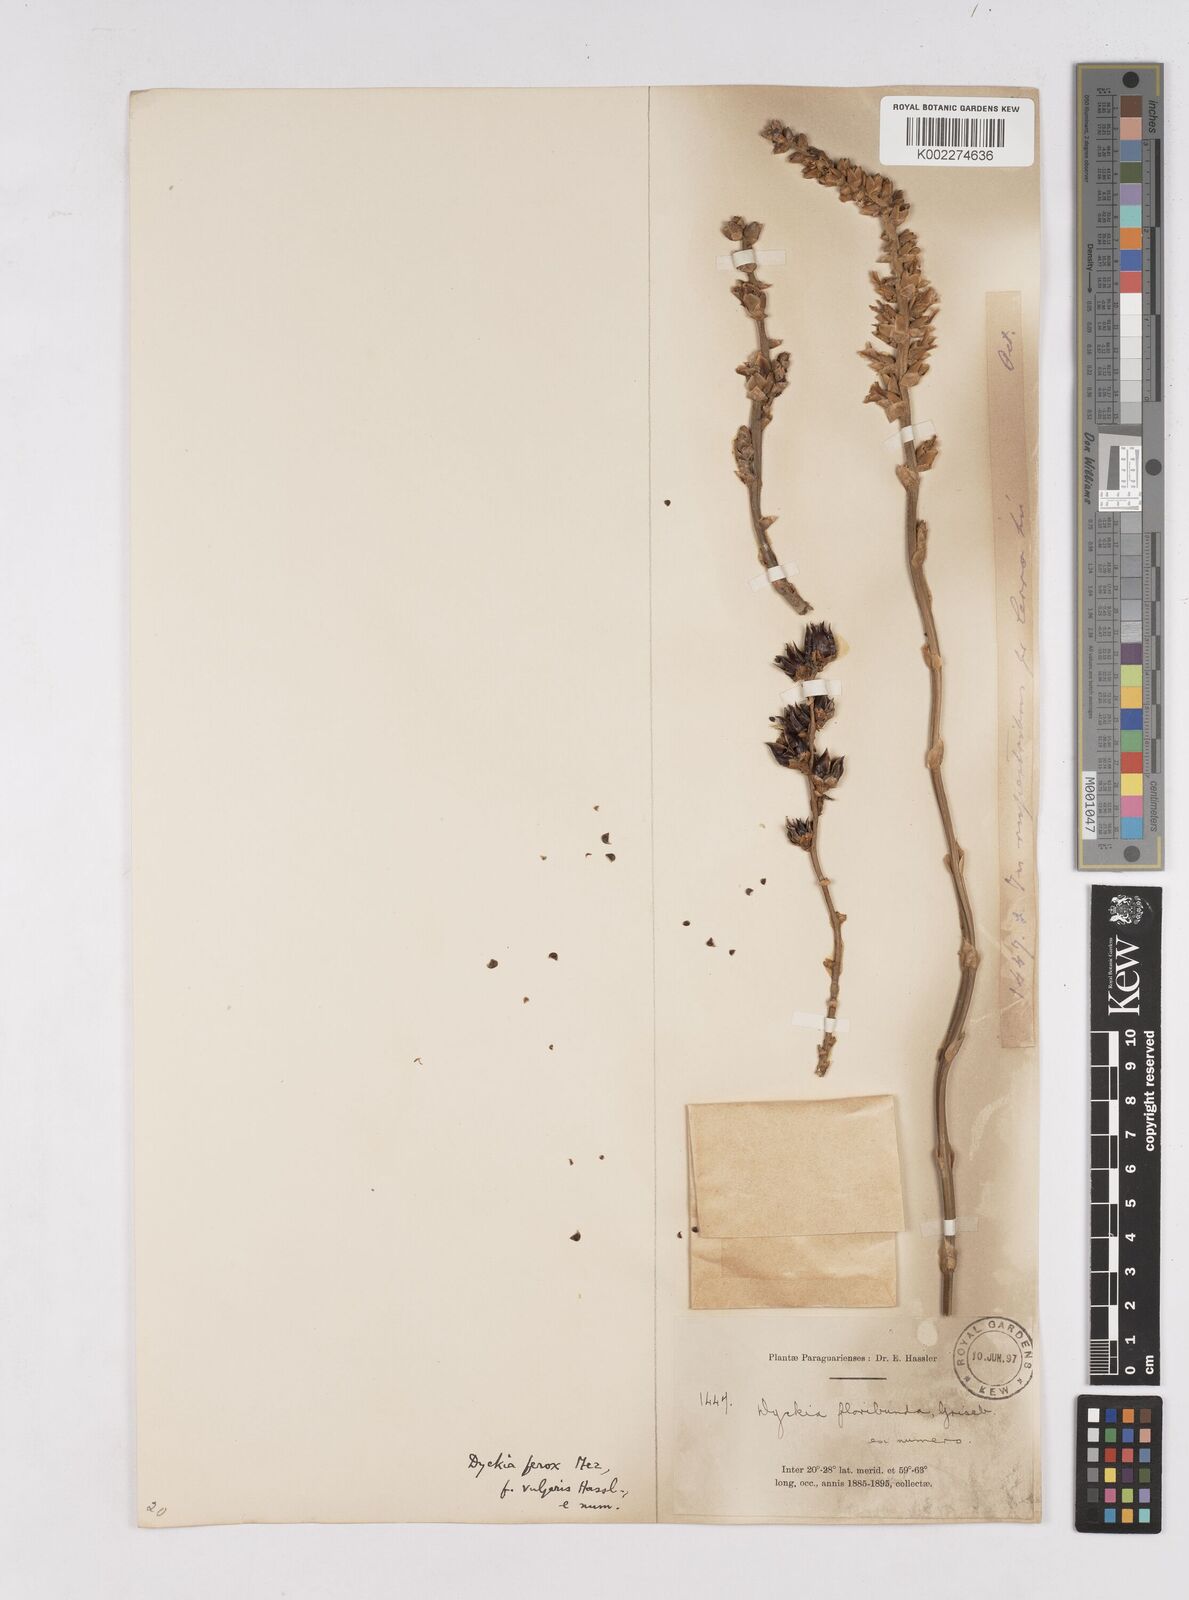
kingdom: Plantae
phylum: Tracheophyta
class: Liliopsida
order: Poales
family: Bromeliaceae
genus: Dyckia
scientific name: Dyckia ferox
